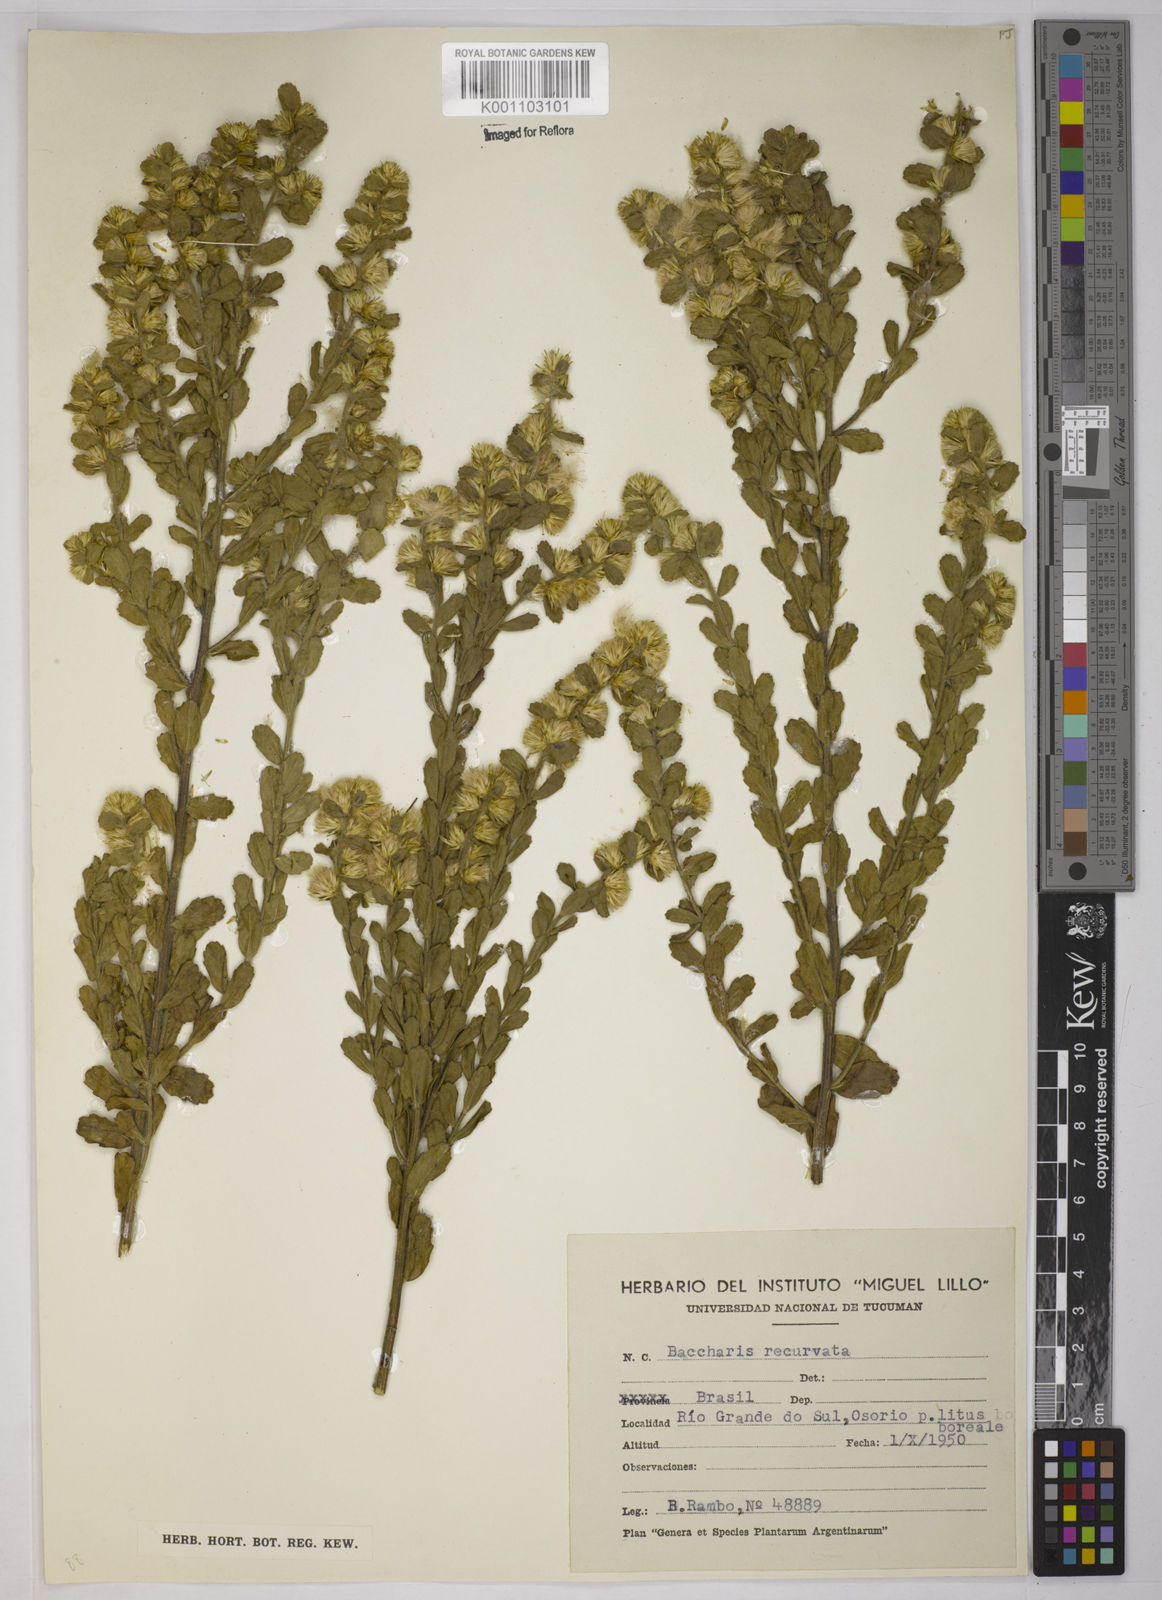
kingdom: Plantae
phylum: Tracheophyta
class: Magnoliopsida
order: Asterales
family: Asteraceae
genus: Baccharis
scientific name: Baccharis caprariifolia
